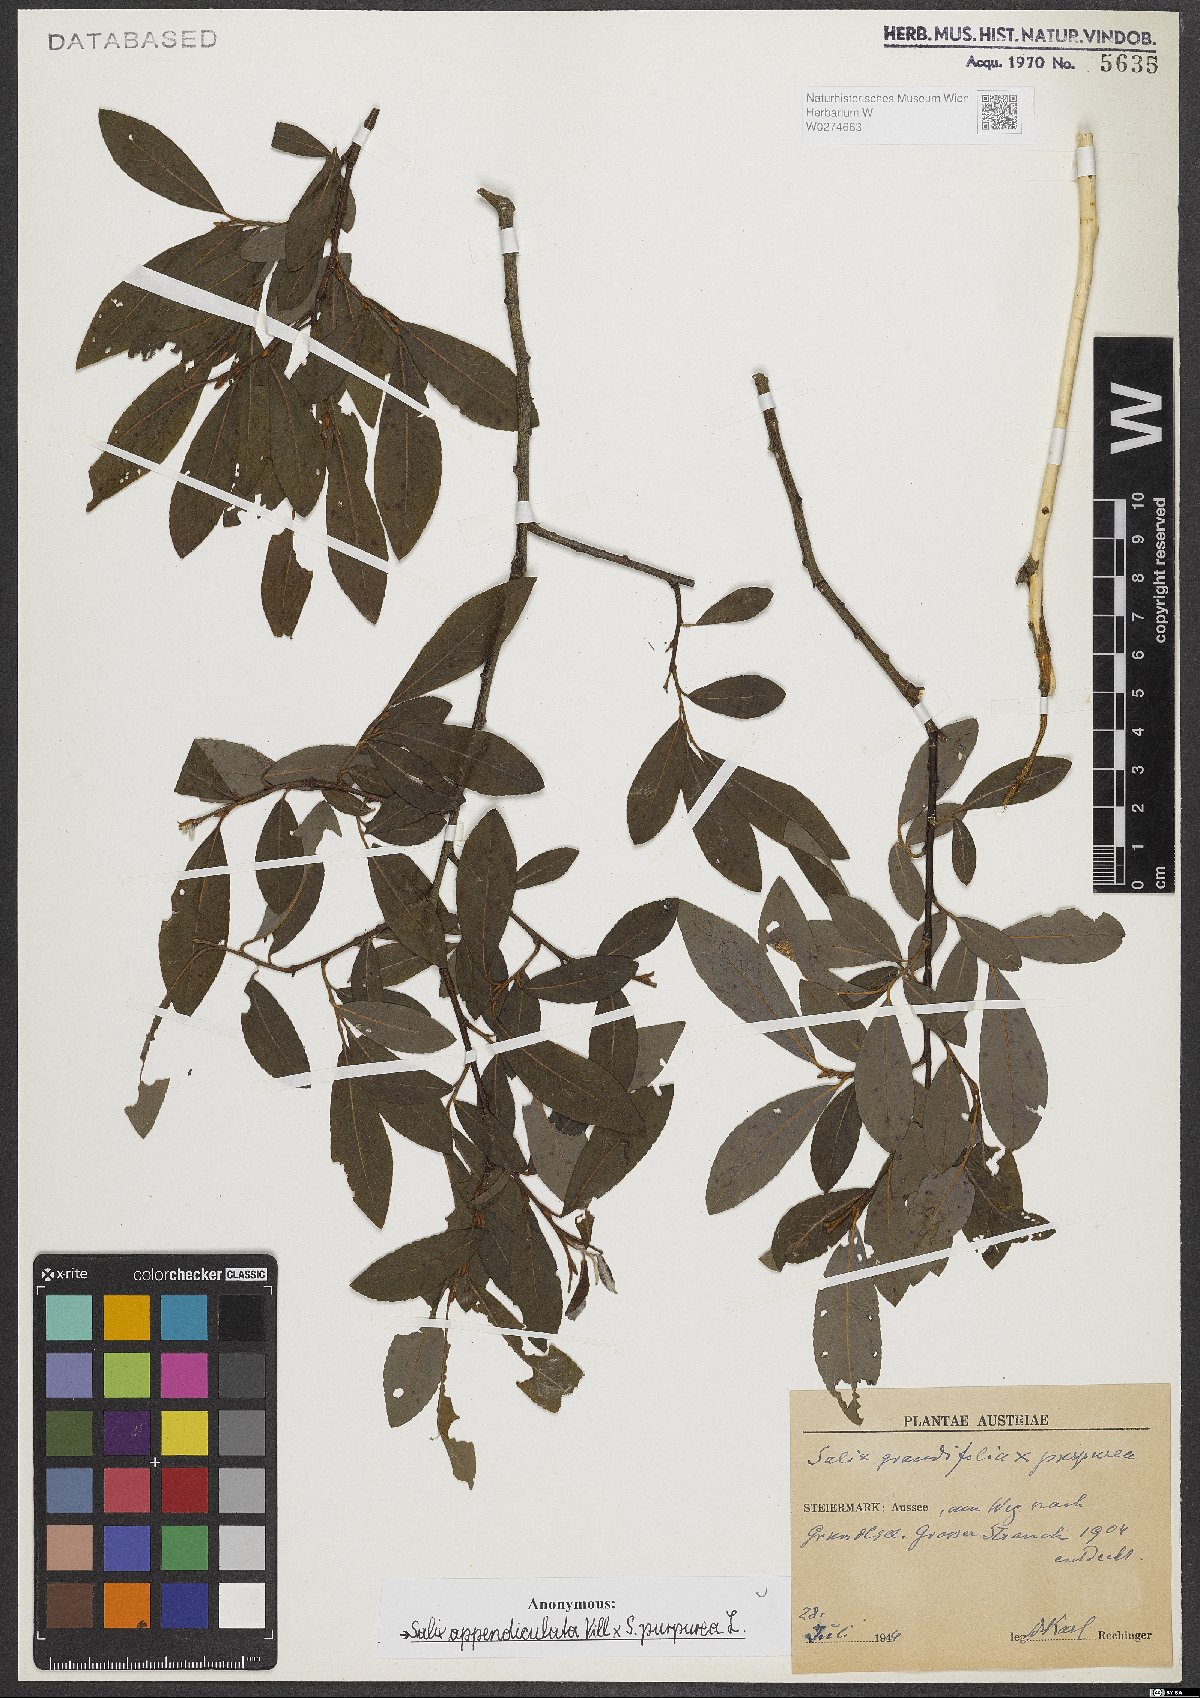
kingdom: Plantae
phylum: Tracheophyta
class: Magnoliopsida
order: Malpighiales
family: Salicaceae
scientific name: Salicaceae
